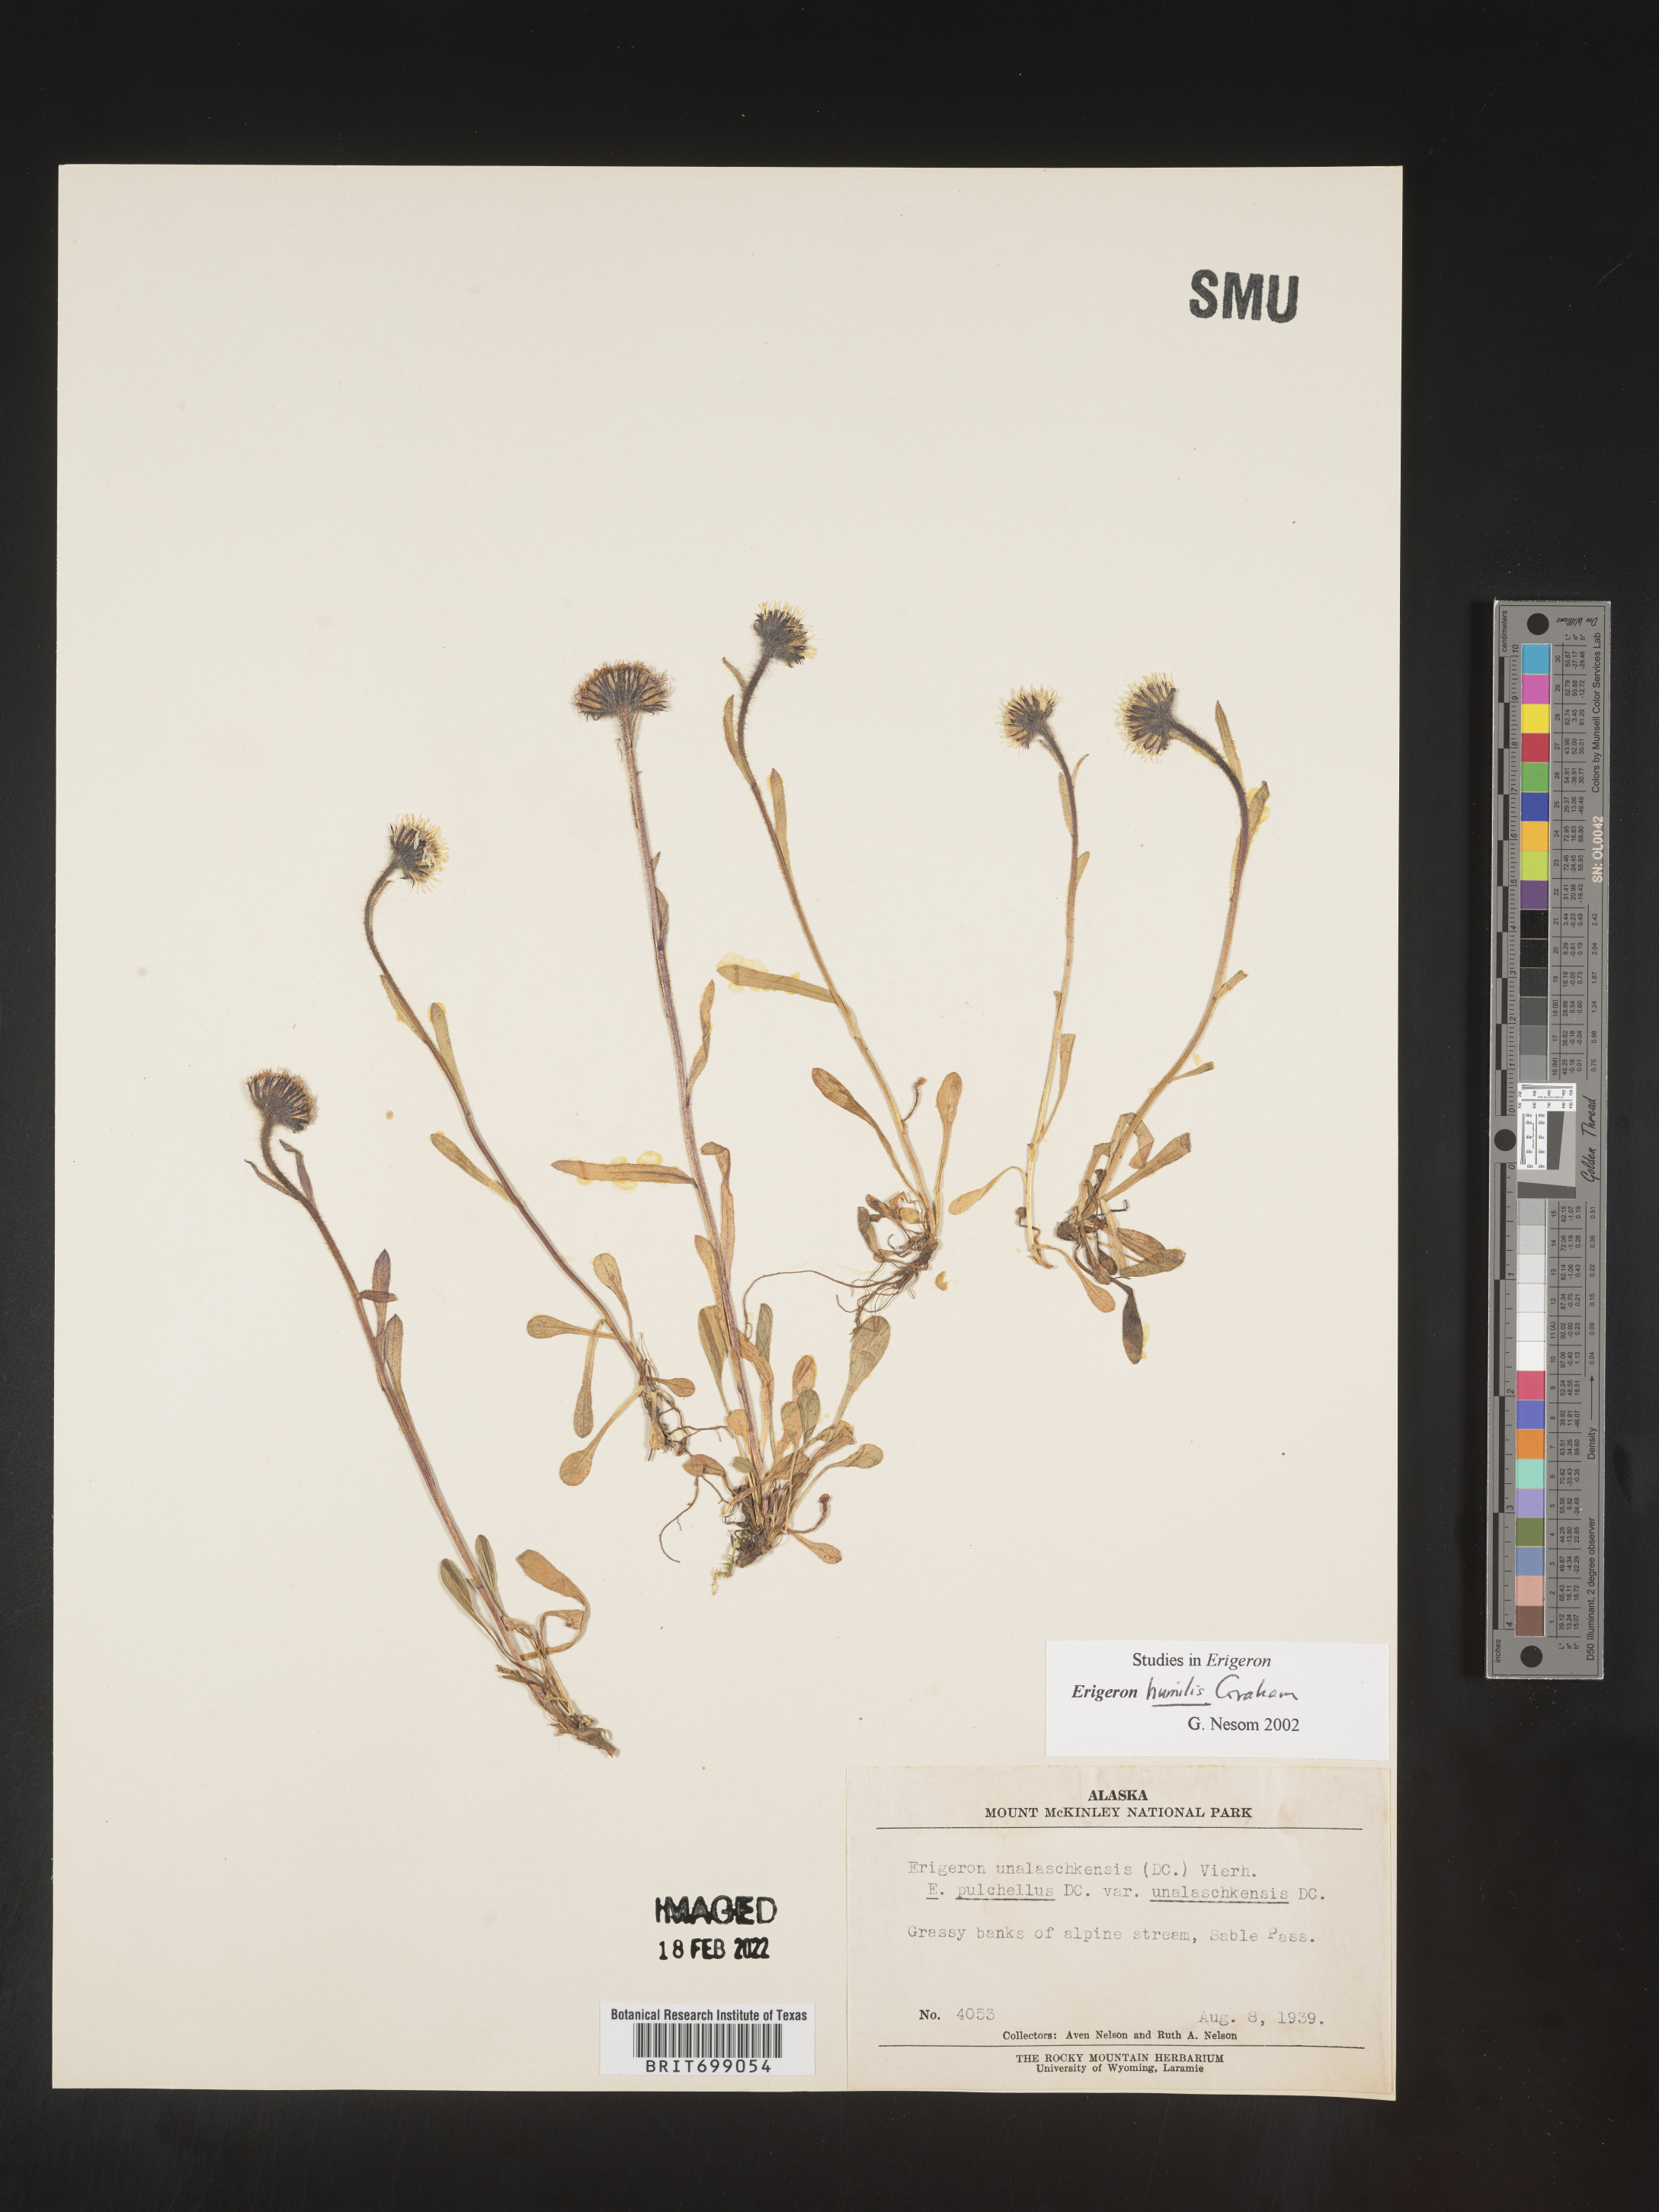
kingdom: Plantae
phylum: Tracheophyta
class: Magnoliopsida
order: Asterales
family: Asteraceae
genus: Erigeron
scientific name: Erigeron humilis
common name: Arctic-alpine fleabane
